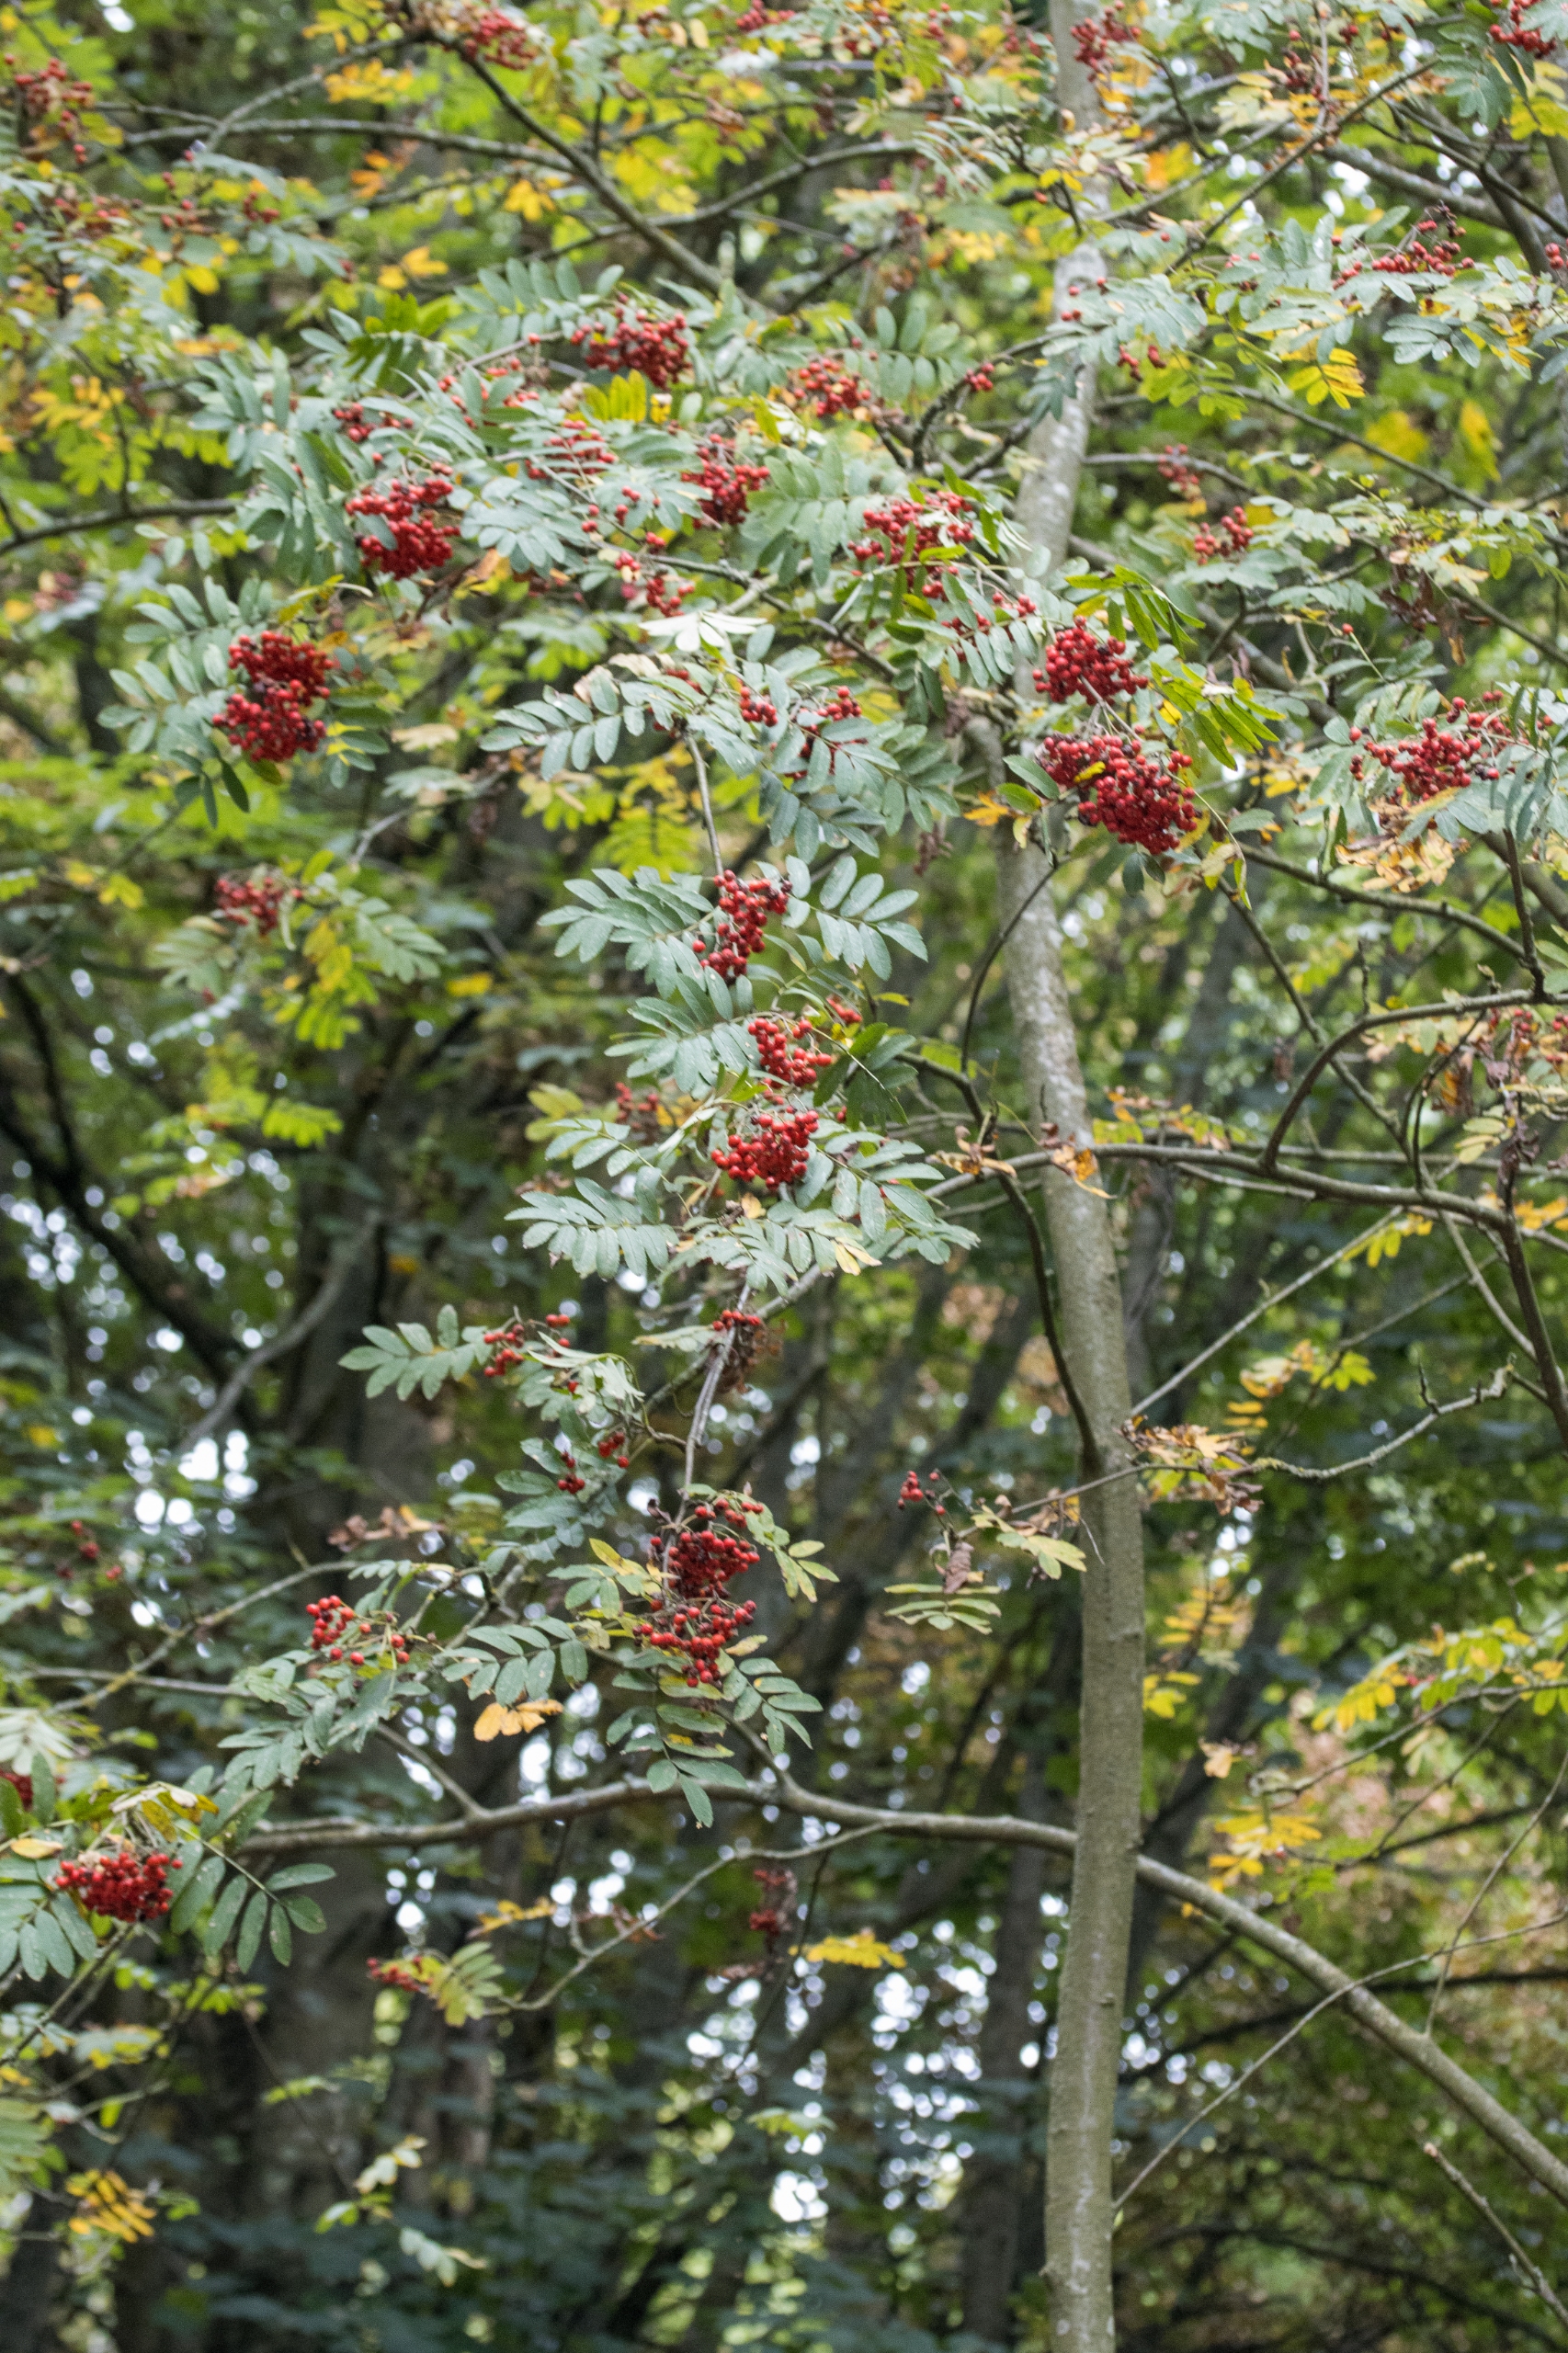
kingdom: Plantae
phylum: Tracheophyta
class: Magnoliopsida
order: Rosales
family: Rosaceae
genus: Sorbus
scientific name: Sorbus aucuparia
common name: Almindelig røn
